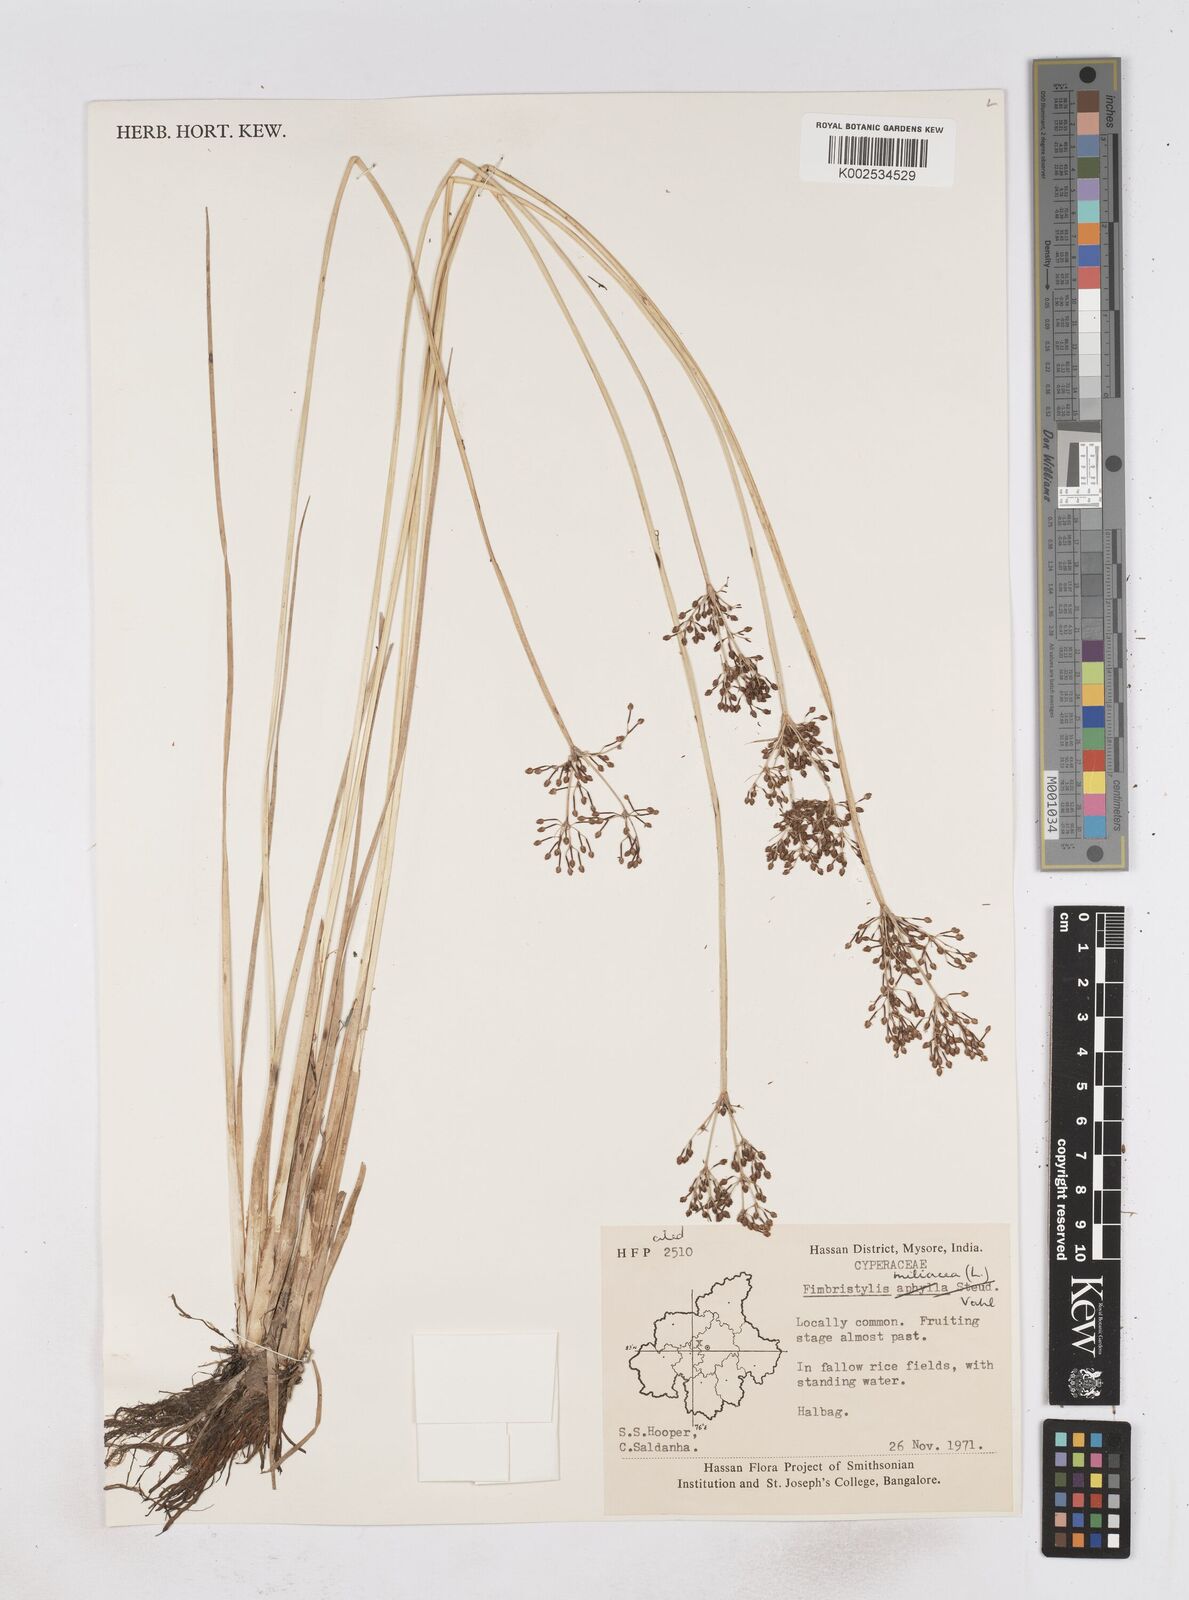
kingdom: Plantae
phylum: Tracheophyta
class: Liliopsida
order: Poales
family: Cyperaceae
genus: Fimbristylis
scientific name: Fimbristylis quinquangularis
